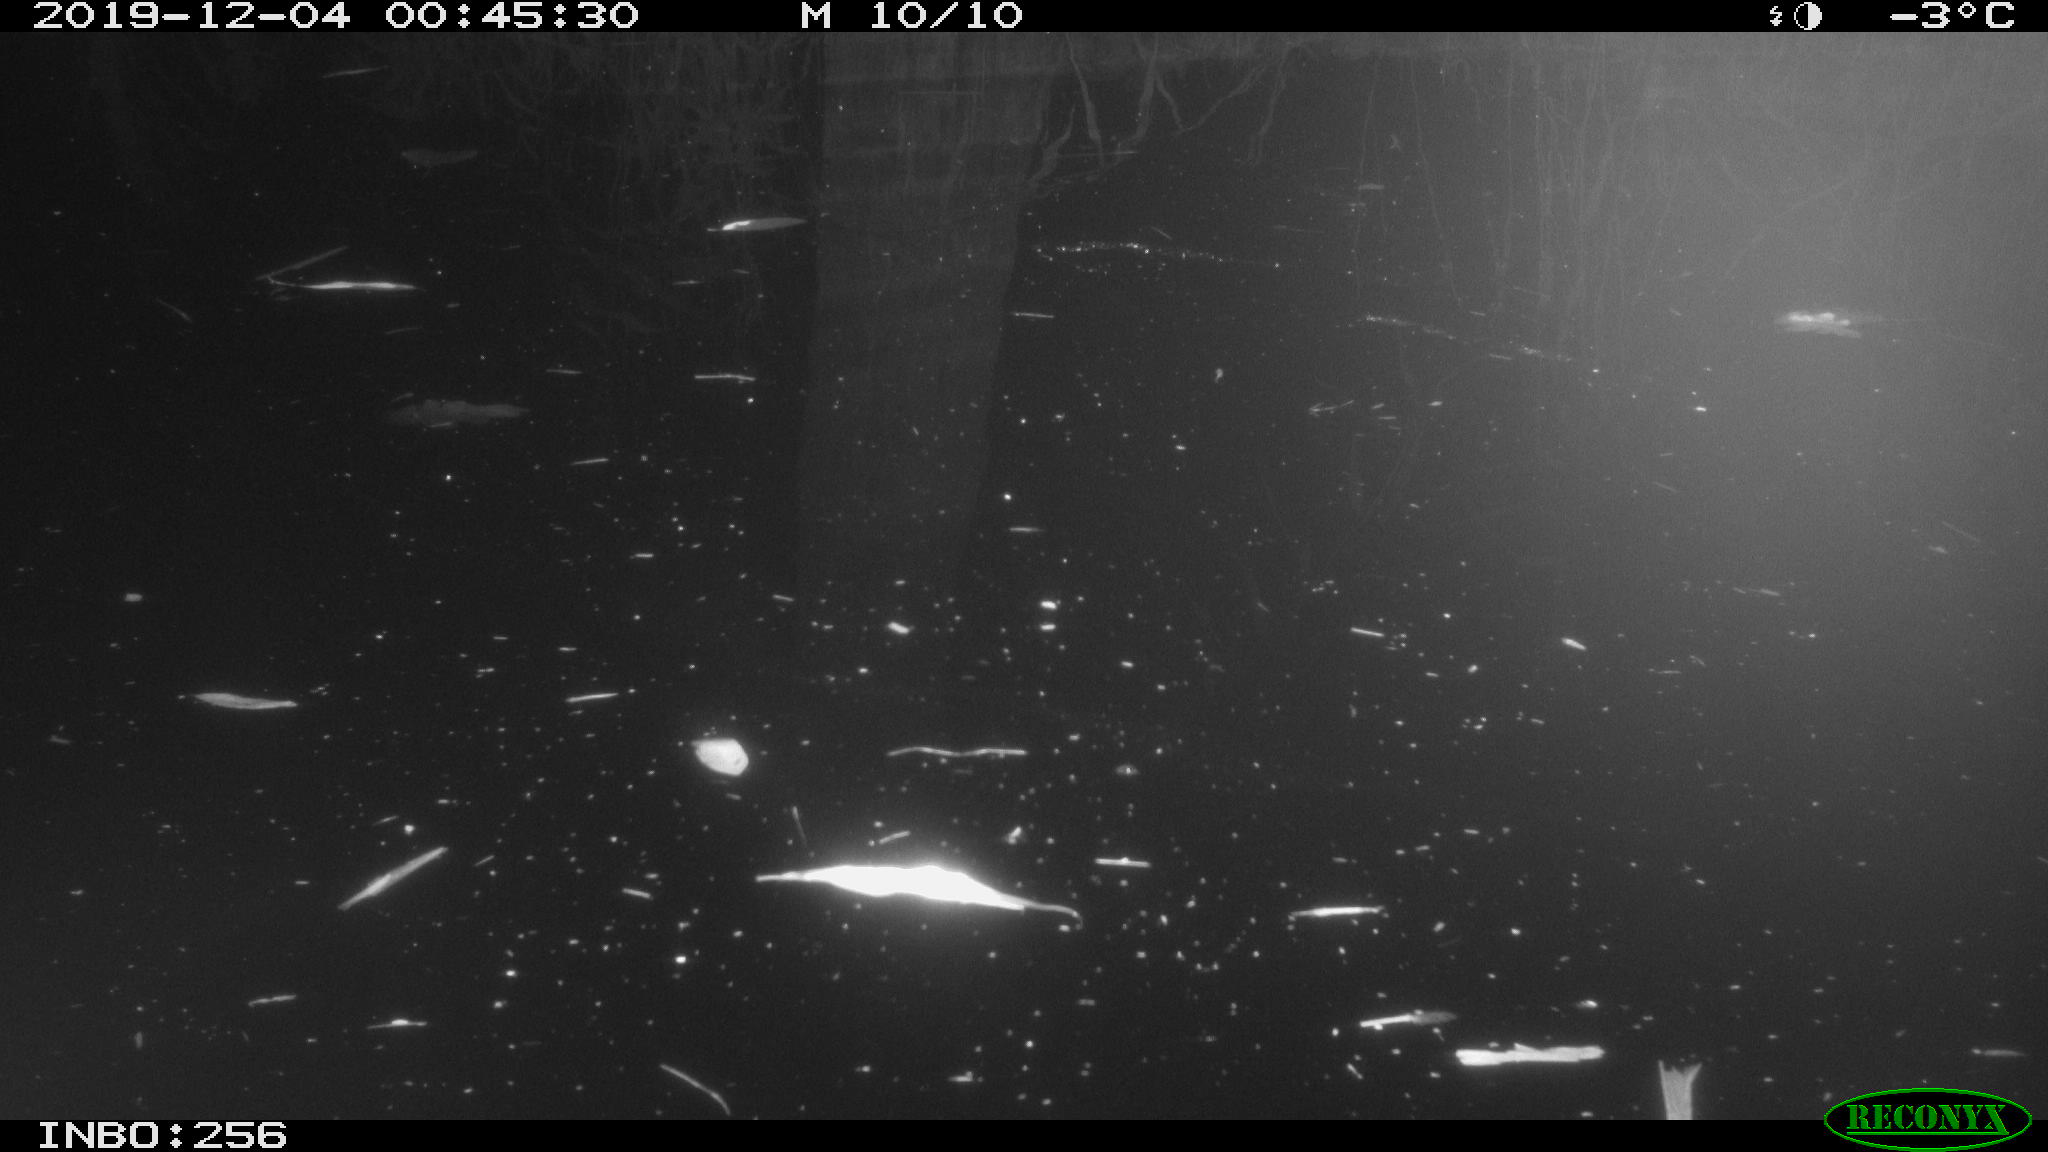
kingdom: Animalia
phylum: Chordata
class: Aves
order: Anseriformes
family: Anatidae
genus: Anas
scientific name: Anas platyrhynchos
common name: Mallard
